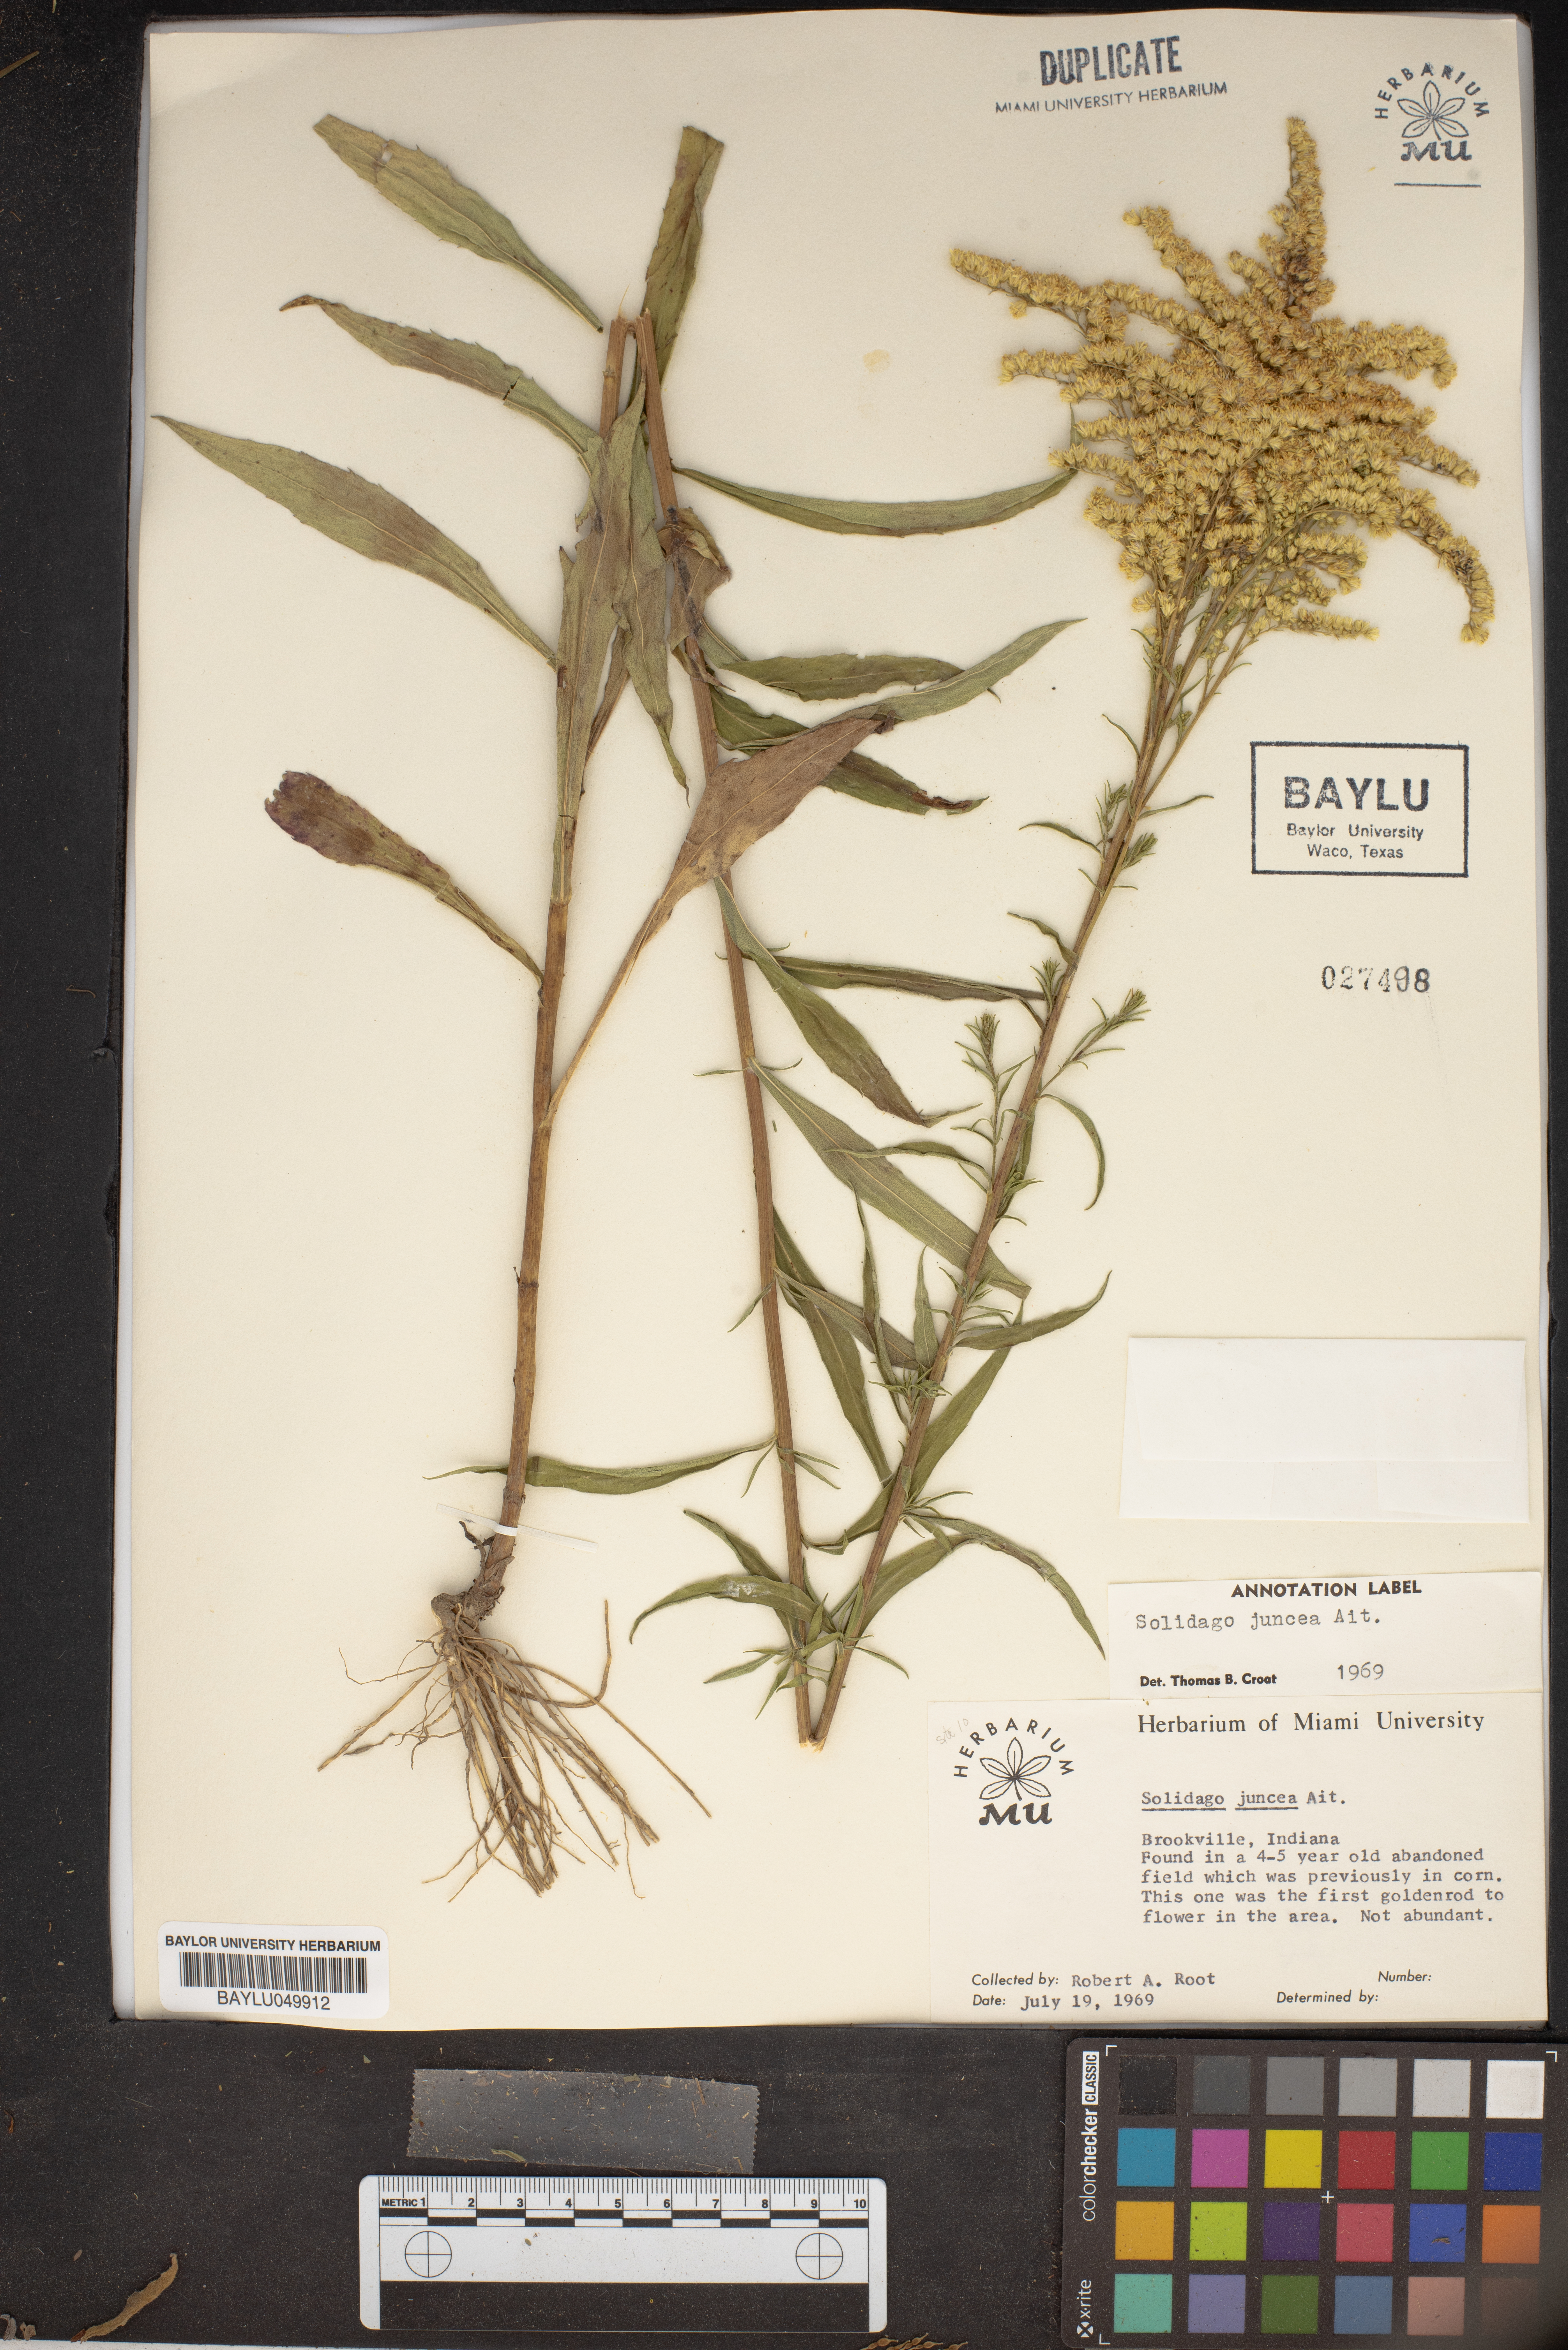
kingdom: Plantae
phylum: Tracheophyta
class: Magnoliopsida
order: Asterales
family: Asteraceae
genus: Solidago
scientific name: Solidago juncea
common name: Early goldenrod
